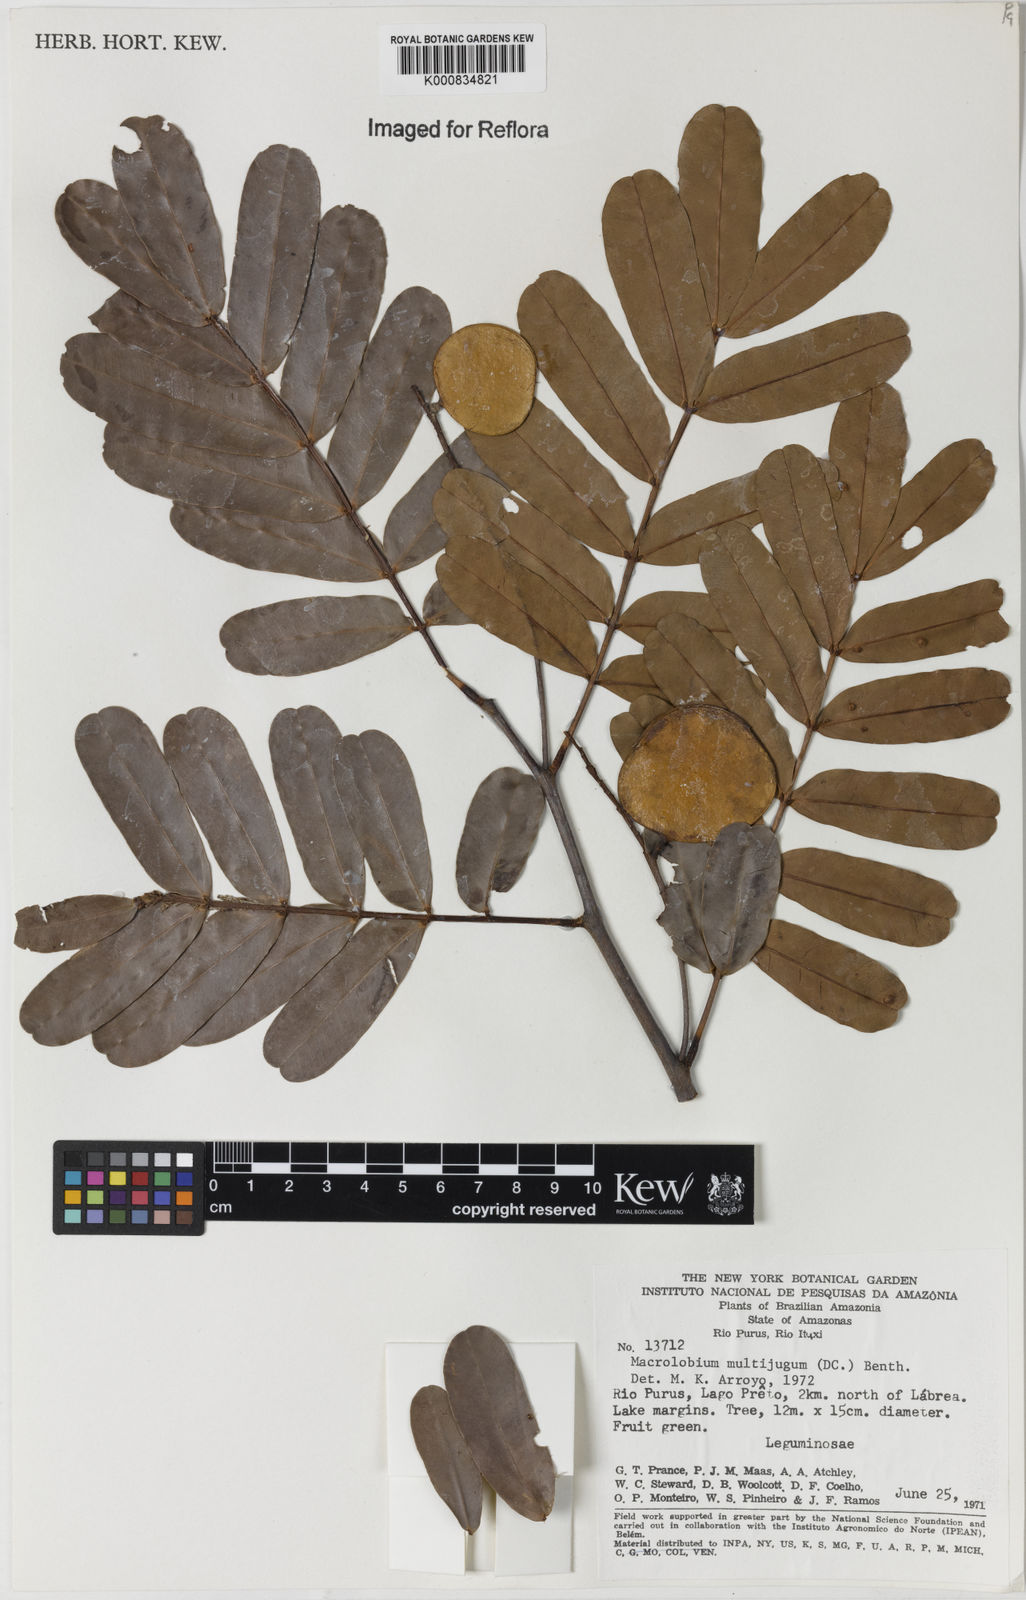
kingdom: Plantae
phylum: Tracheophyta
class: Magnoliopsida
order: Fabales
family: Fabaceae
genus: Macrolobium
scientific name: Macrolobium multijugum
